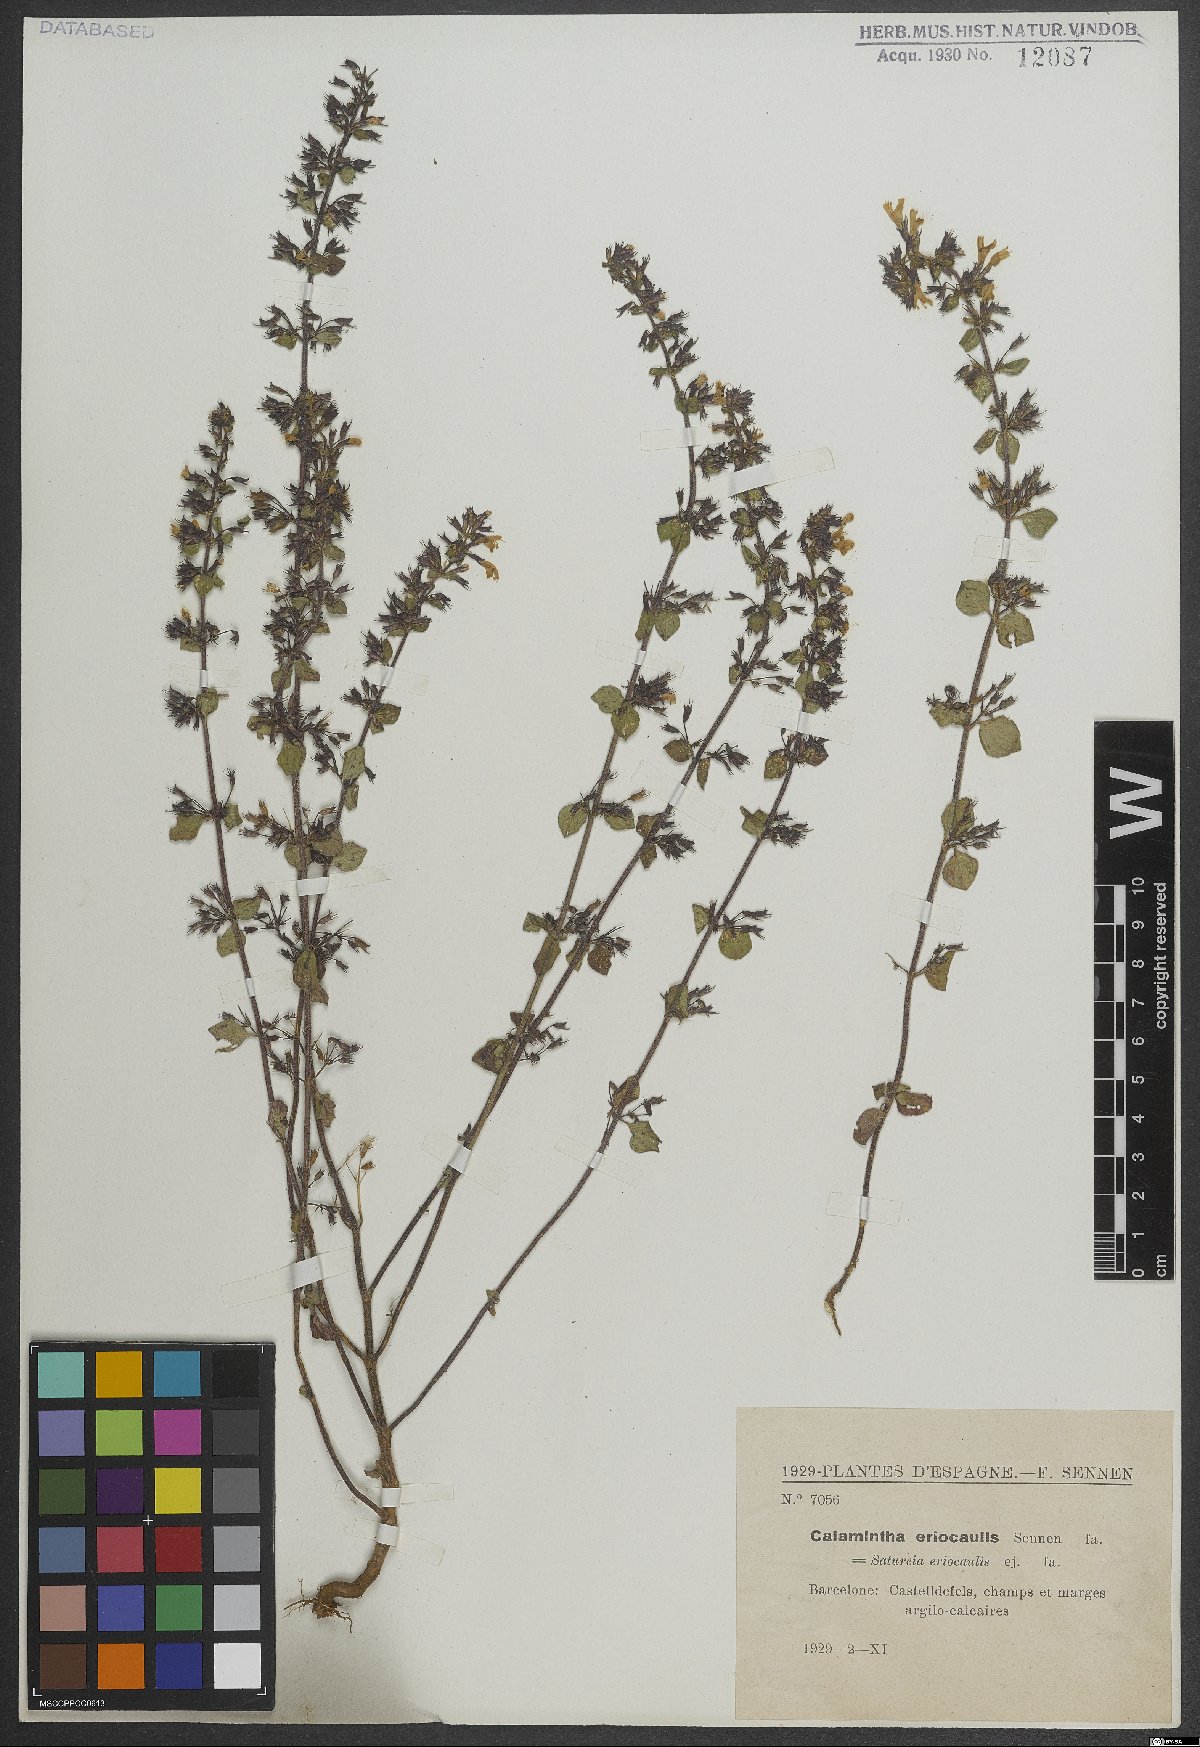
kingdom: Plantae
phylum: Tracheophyta
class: Magnoliopsida
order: Lamiales
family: Lamiaceae
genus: Clinopodium
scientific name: Clinopodium nepeta
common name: Lesser calamint
